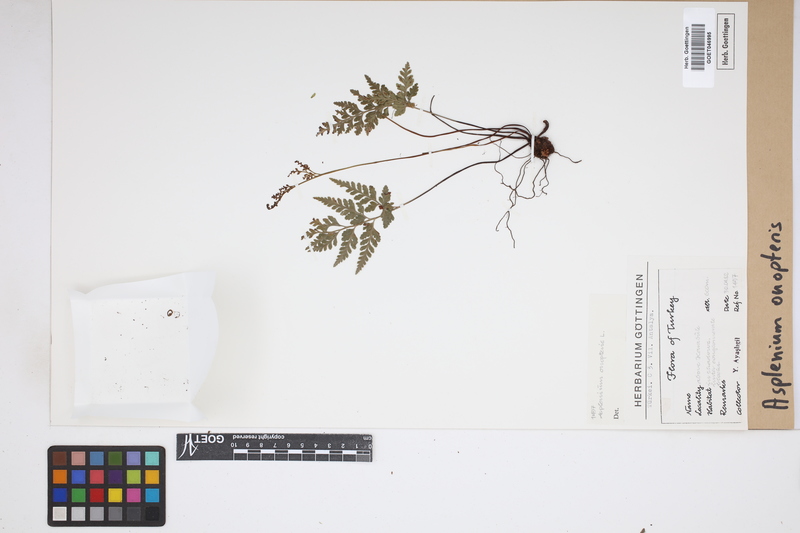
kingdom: Plantae
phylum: Tracheophyta
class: Polypodiopsida
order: Polypodiales
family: Aspleniaceae
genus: Asplenium
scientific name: Asplenium onopteris
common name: Irish spleenwort
